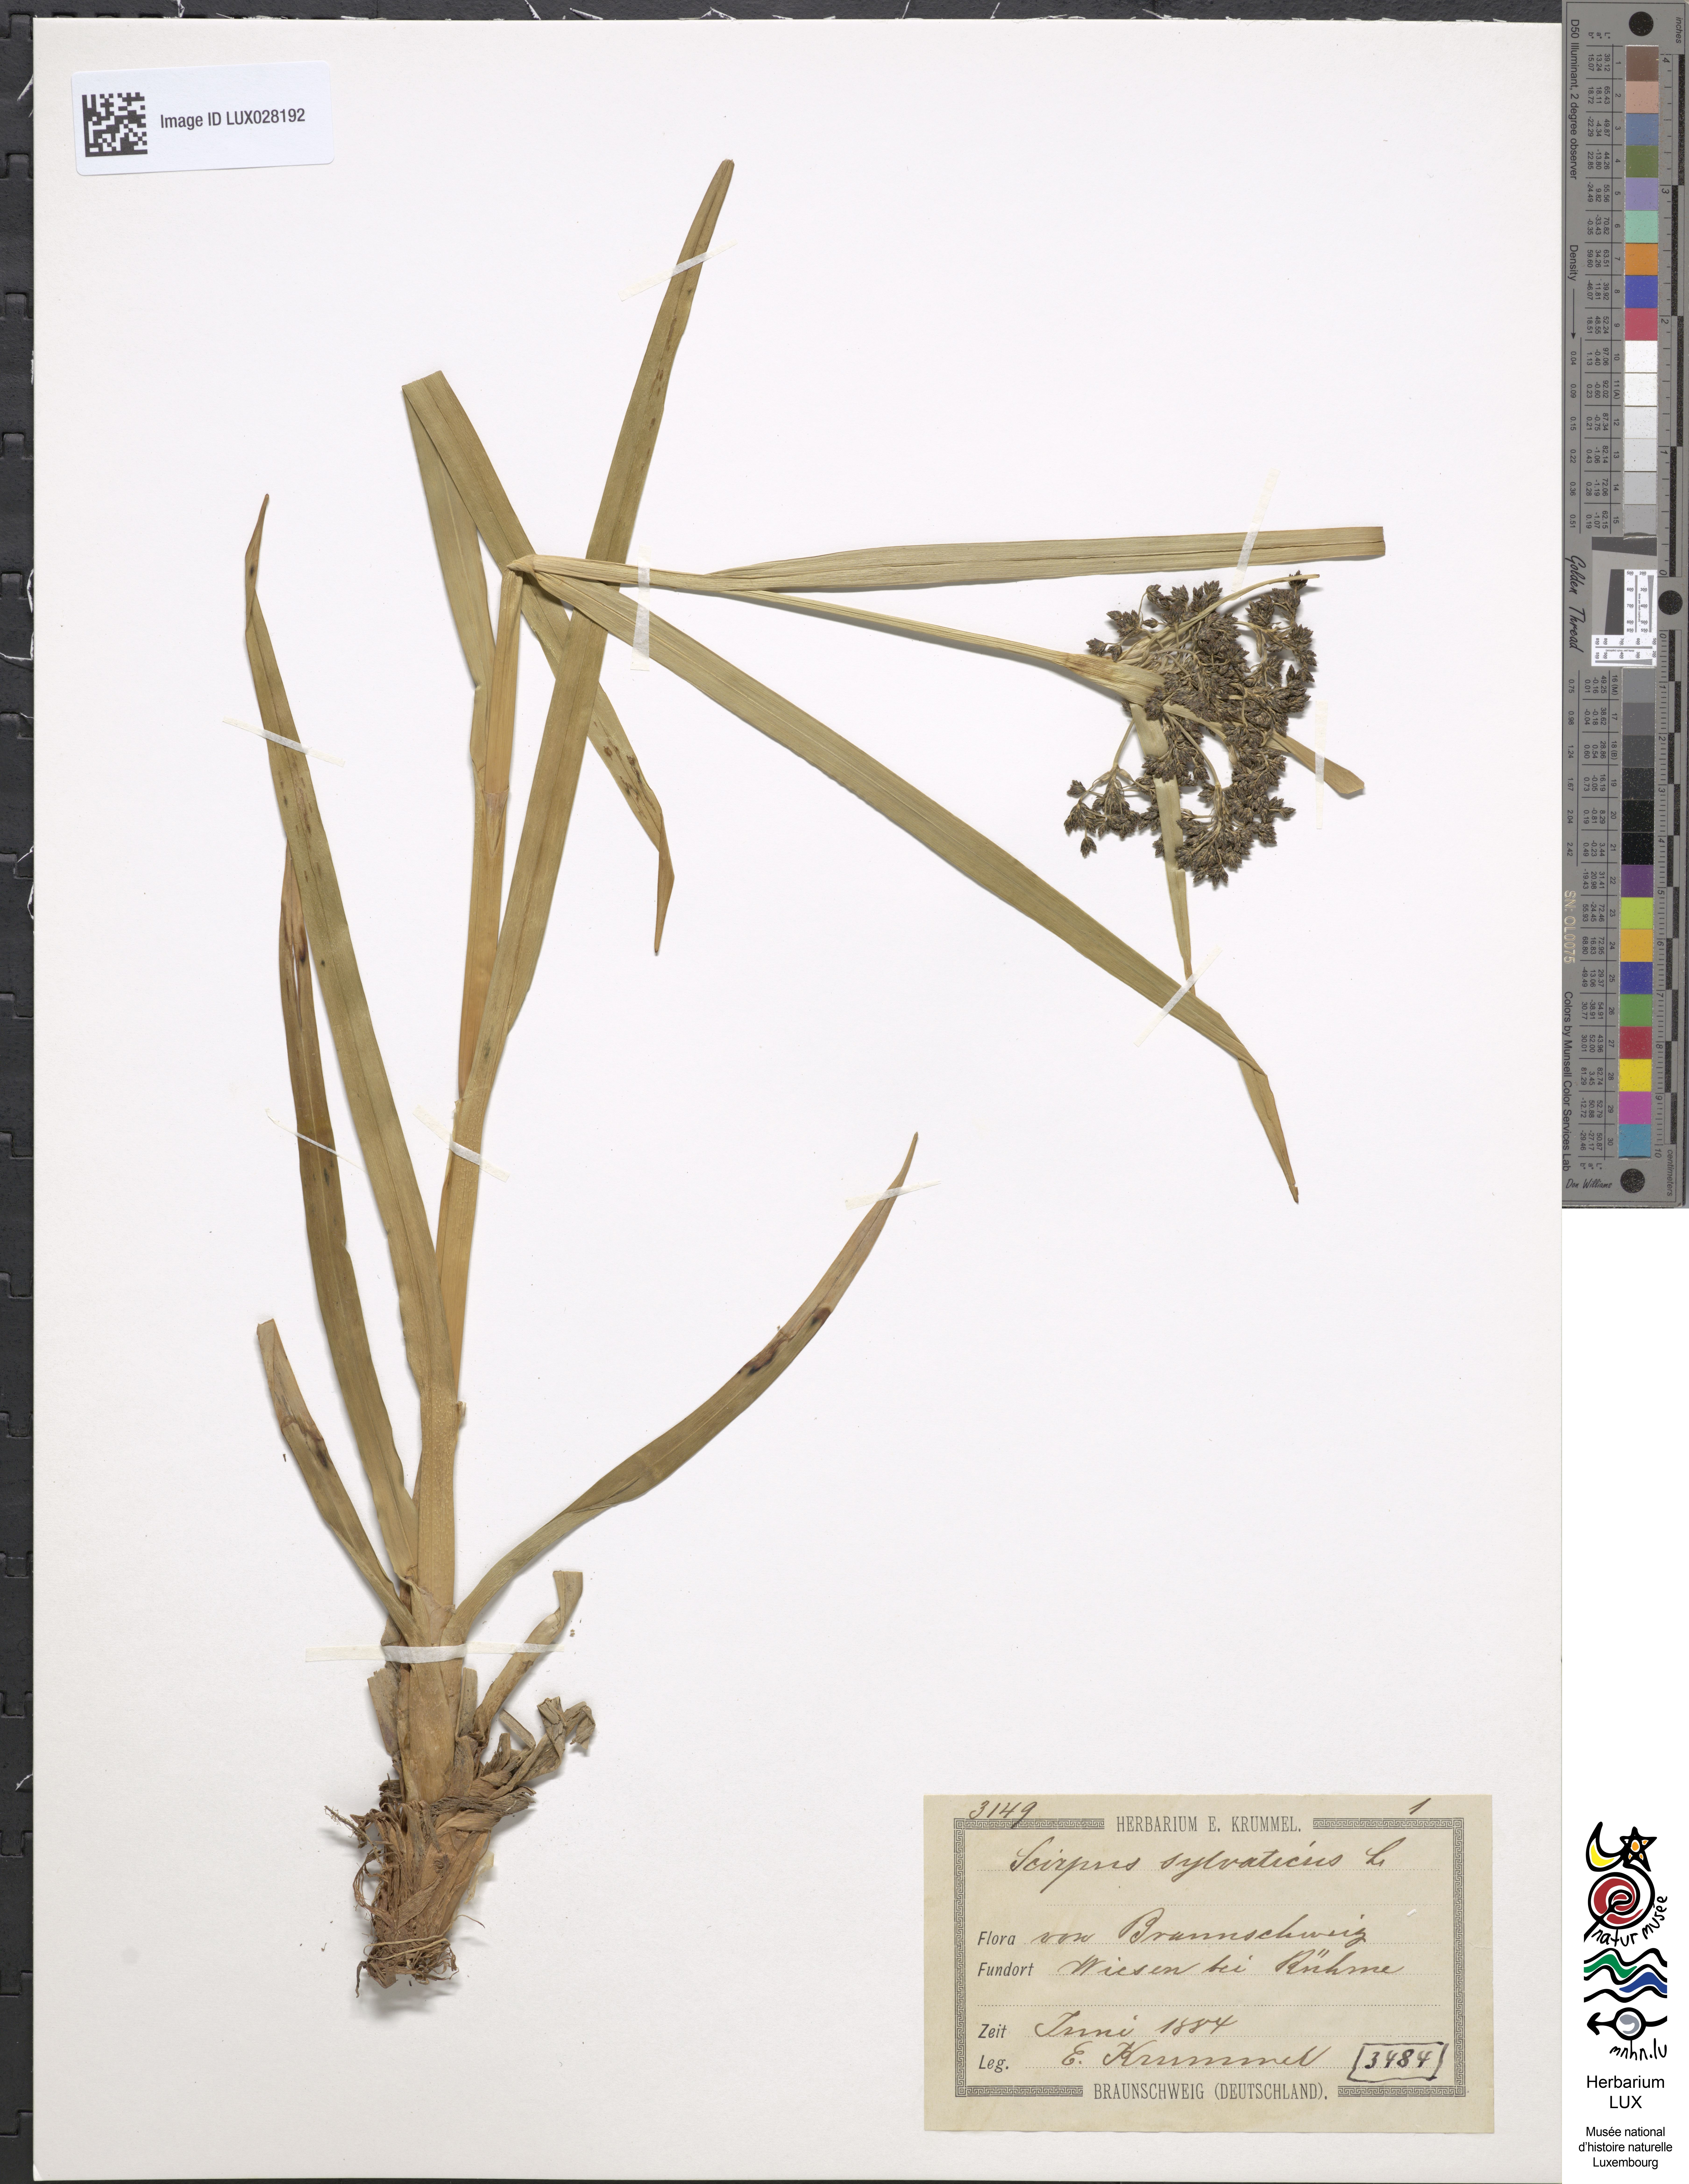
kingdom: Plantae
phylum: Tracheophyta
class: Liliopsida
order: Poales
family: Cyperaceae
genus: Scirpus
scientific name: Scirpus sylvaticus
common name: Wood club-rush
